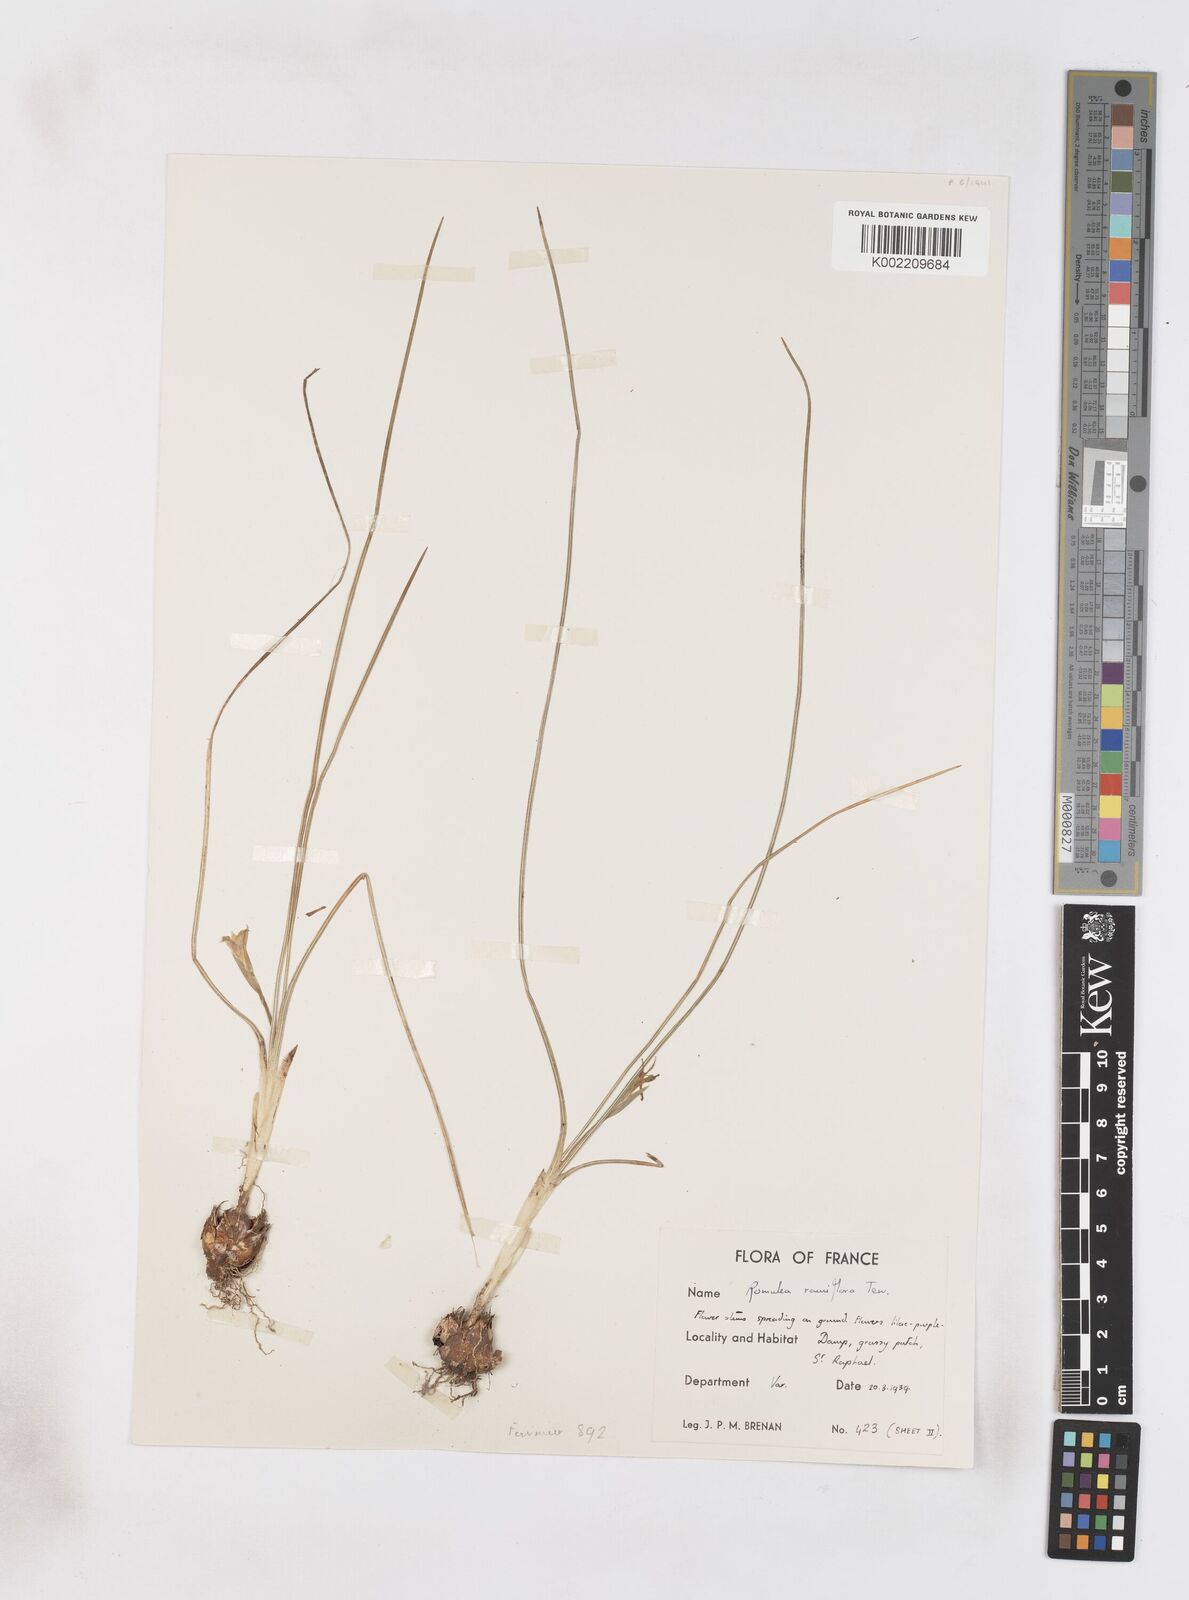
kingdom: Plantae
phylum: Tracheophyta
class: Liliopsida
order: Asparagales
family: Iridaceae
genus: Romulea
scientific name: Romulea ramiflora
